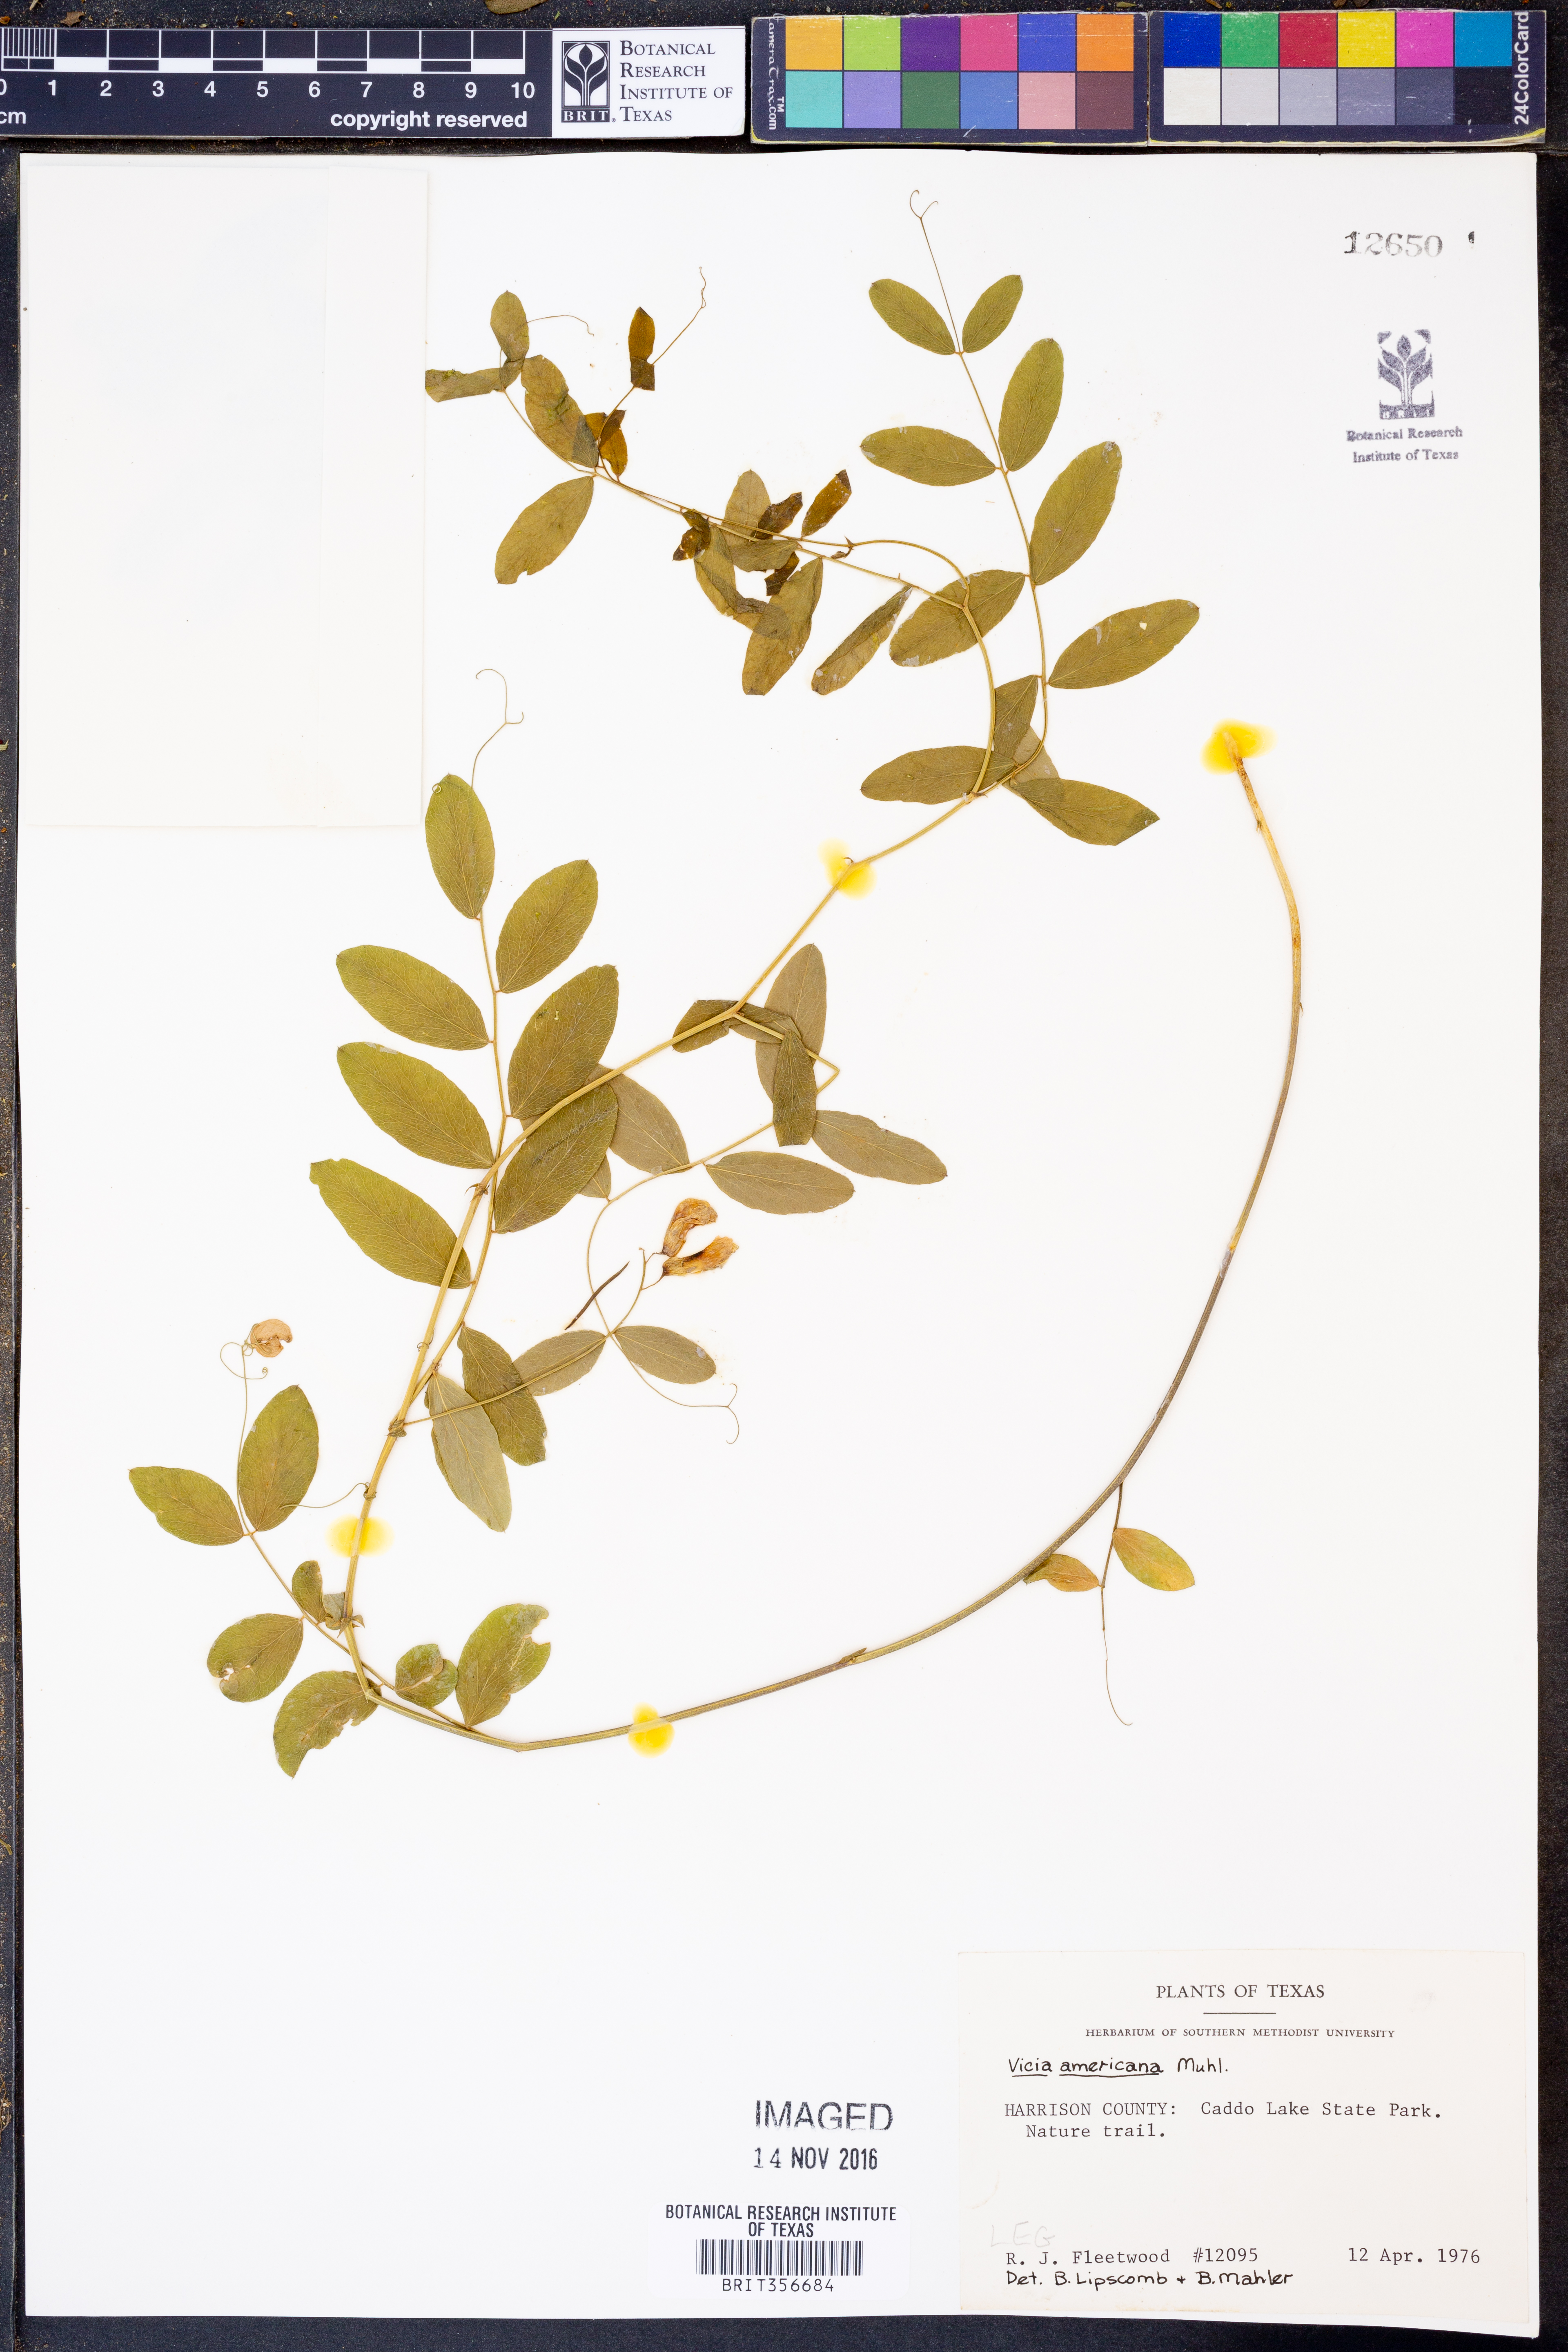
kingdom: Plantae
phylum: Tracheophyta
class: Magnoliopsida
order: Fabales
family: Fabaceae
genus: Vicia
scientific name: Vicia americana
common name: American vetch
